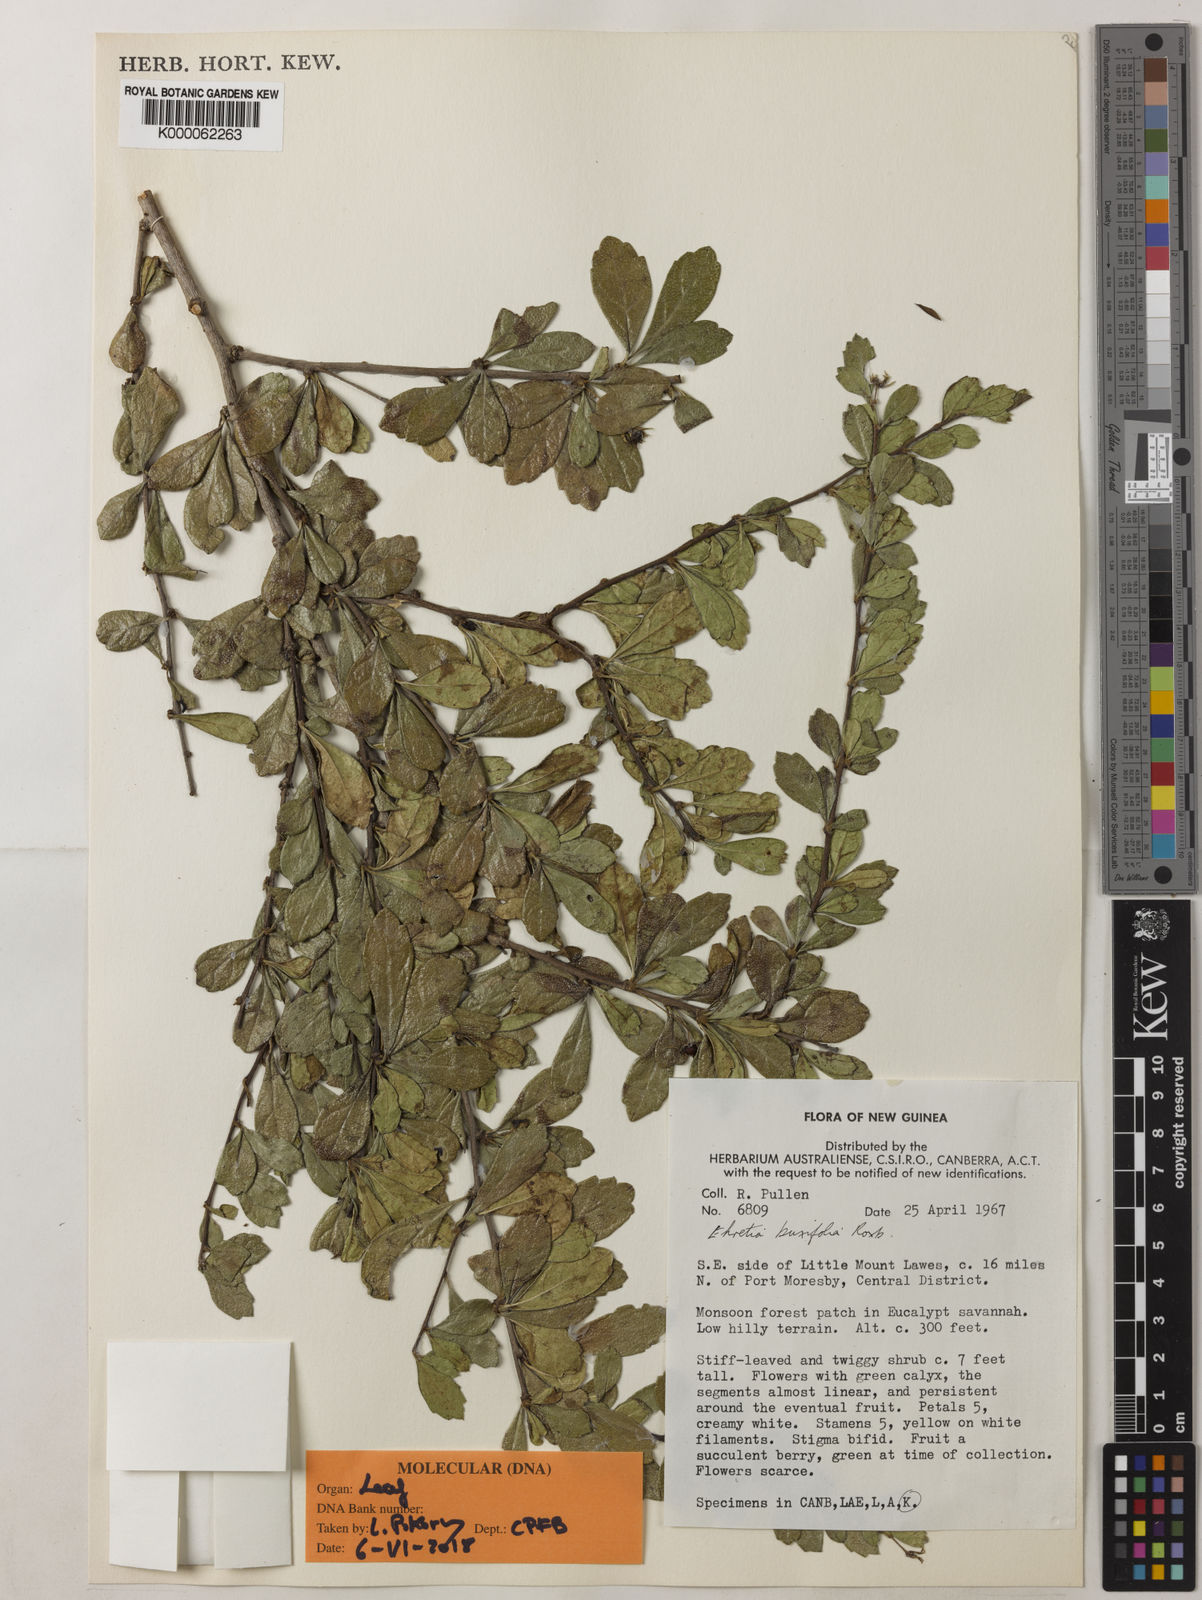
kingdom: Plantae
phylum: Tracheophyta
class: Magnoliopsida
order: Boraginales
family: Ehretiaceae
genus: Ehretia
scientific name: Ehretia microphylla
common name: Fukien-tea
